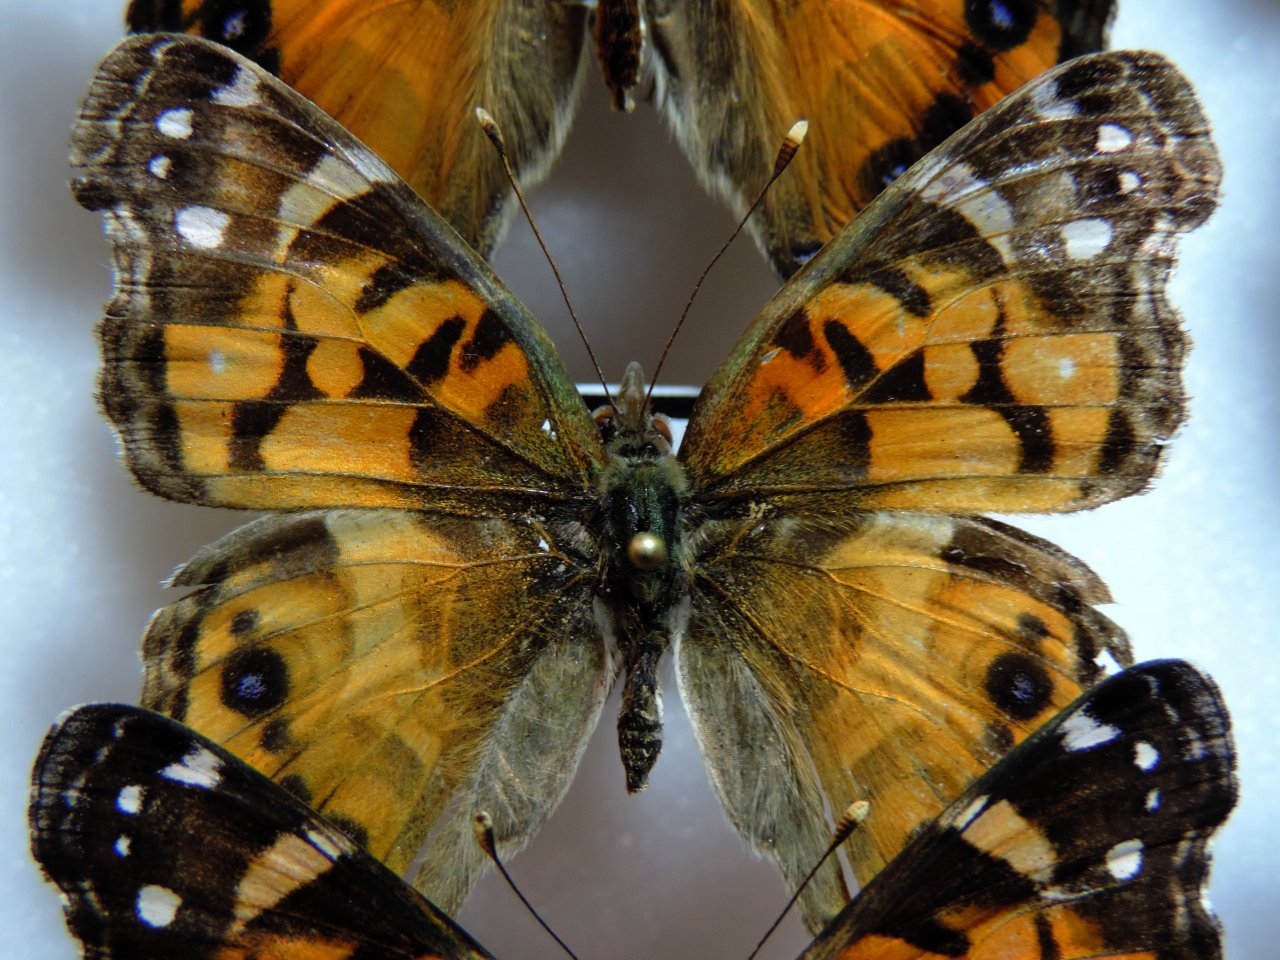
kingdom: Animalia
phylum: Arthropoda
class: Insecta
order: Lepidoptera
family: Nymphalidae
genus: Vanessa
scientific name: Vanessa virginiensis
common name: American Lady
